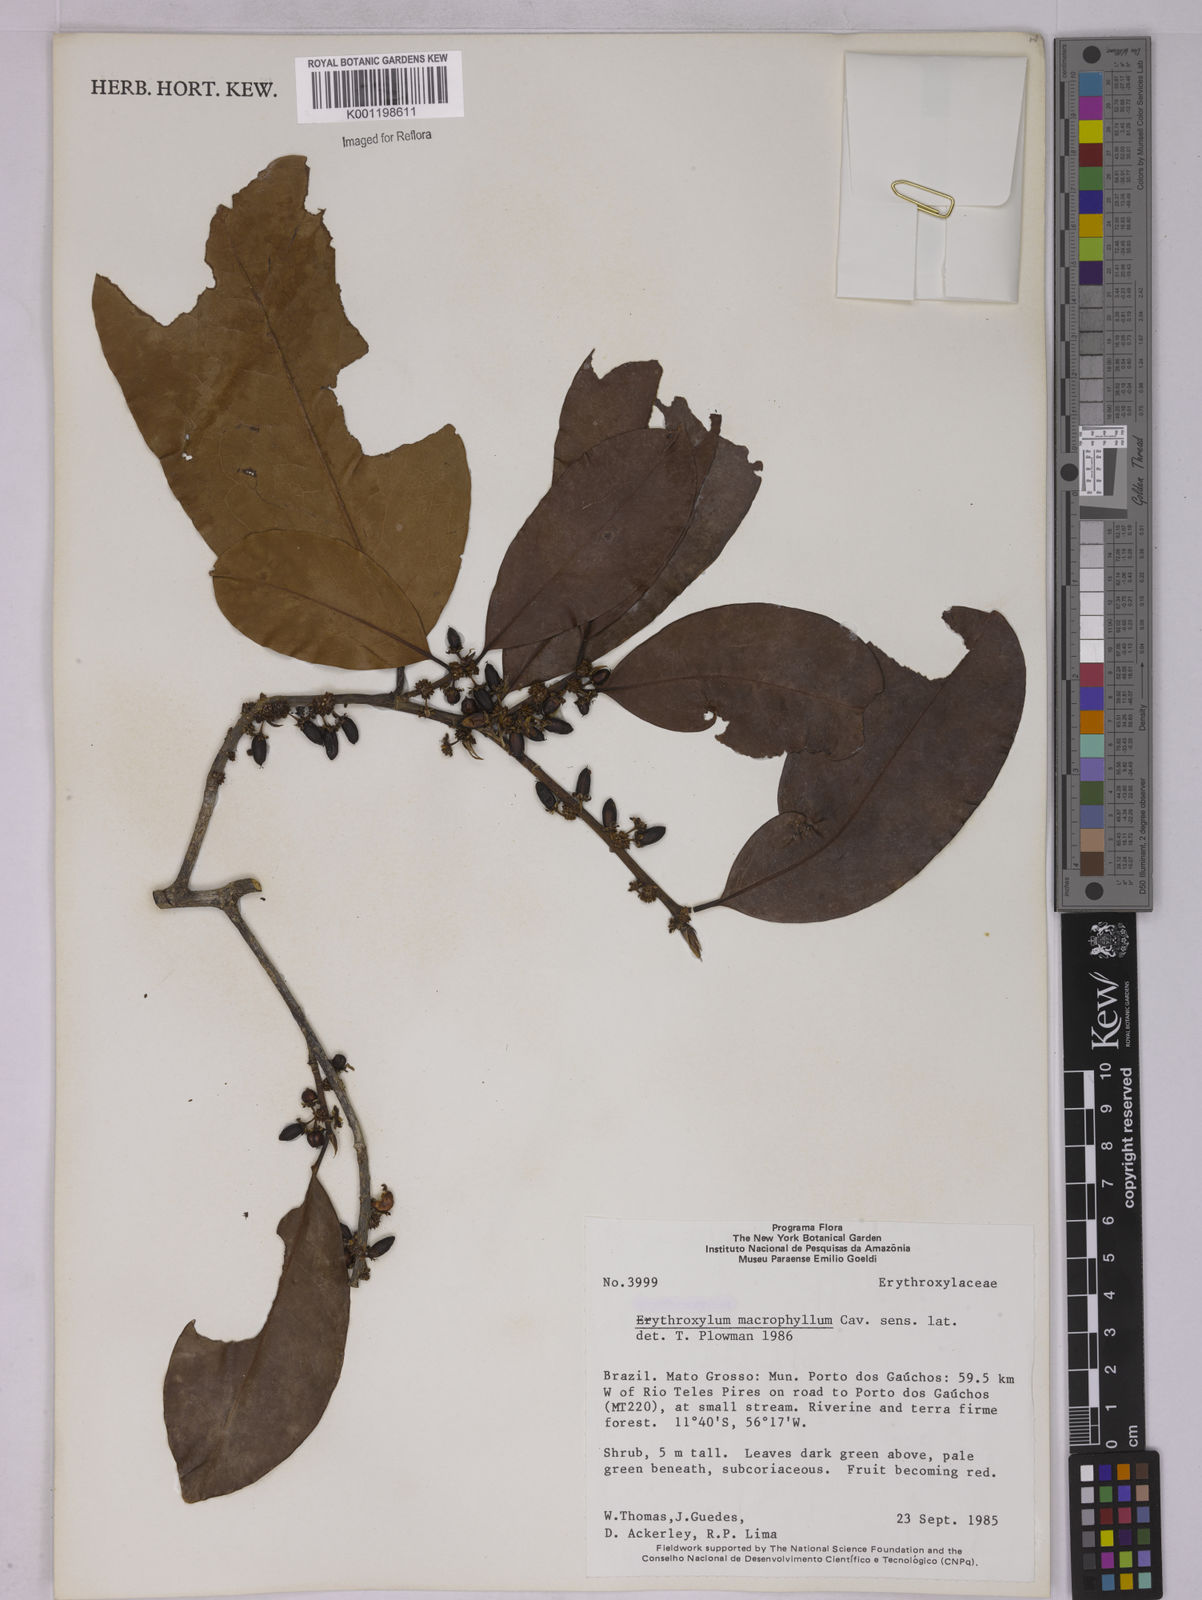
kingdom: Plantae
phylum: Tracheophyta
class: Magnoliopsida
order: Malpighiales
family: Erythroxylaceae
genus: Erythroxylum
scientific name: Erythroxylum macrophyllum
